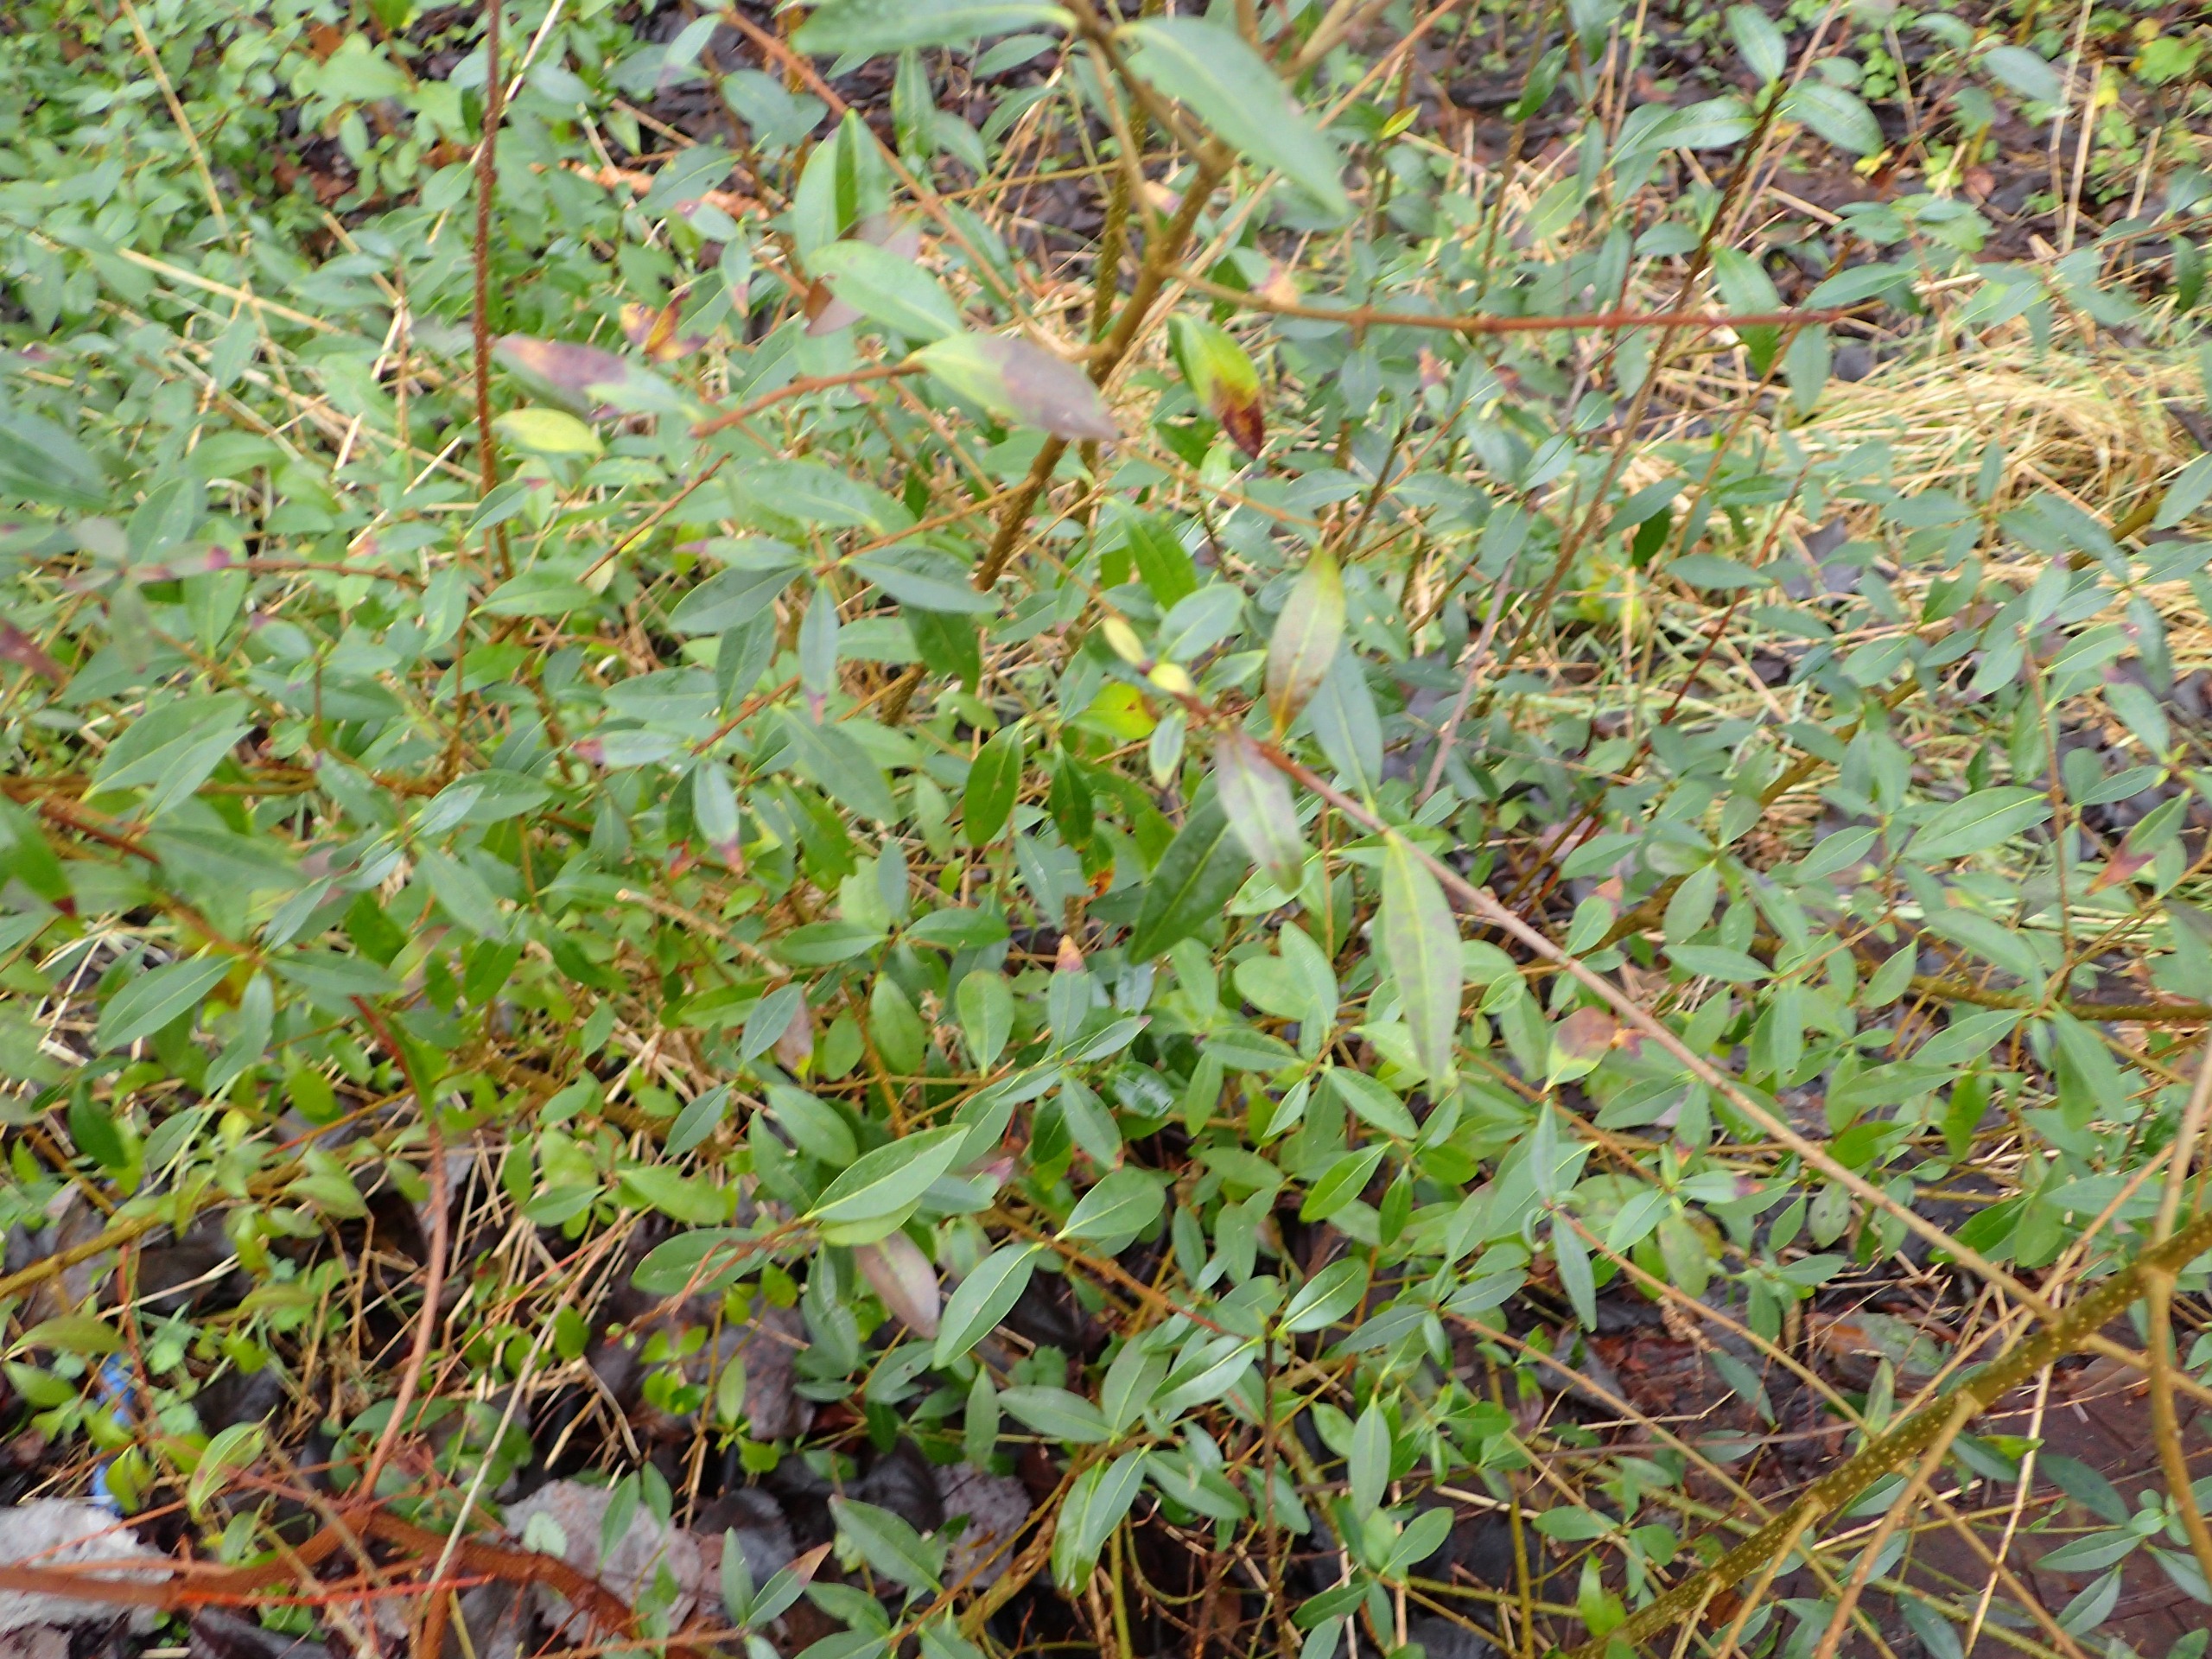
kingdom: Plantae
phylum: Tracheophyta
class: Magnoliopsida
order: Lamiales
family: Oleaceae
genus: Ligustrum
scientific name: Ligustrum vulgare
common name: Liguster
